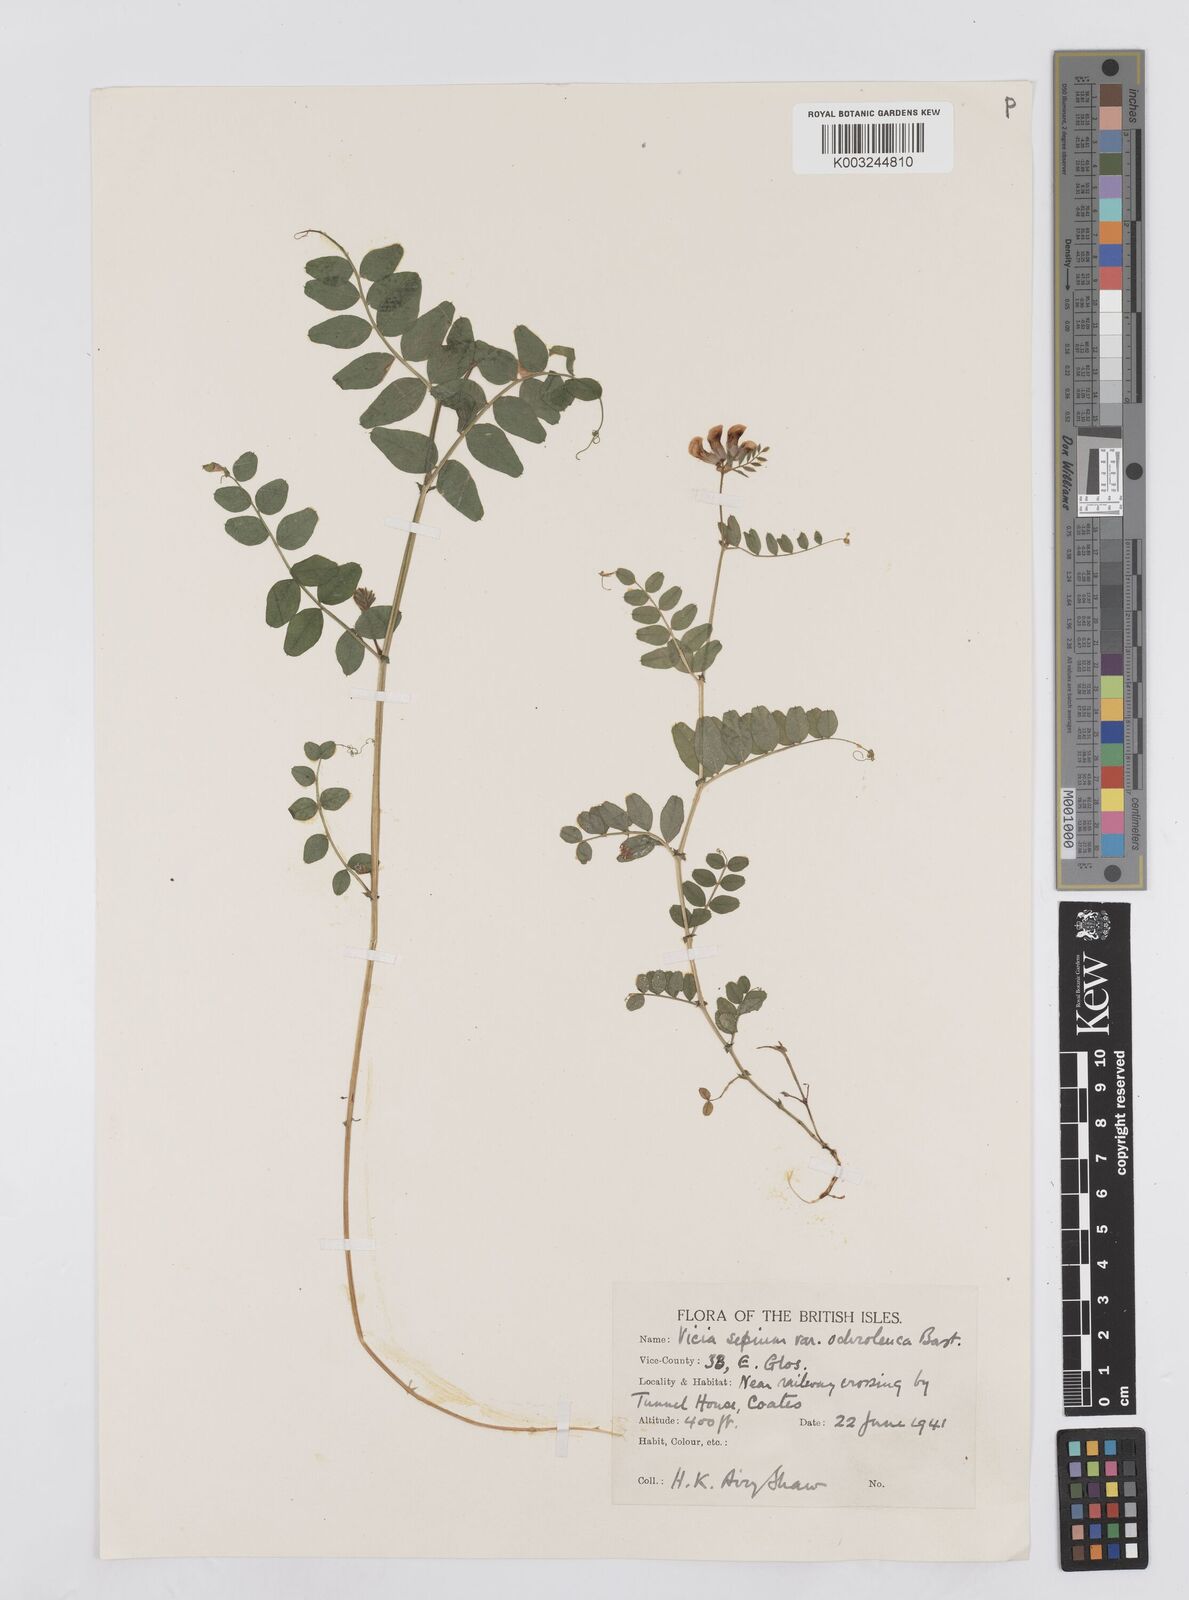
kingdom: Plantae
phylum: Tracheophyta
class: Magnoliopsida
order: Fabales
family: Fabaceae
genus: Vicia
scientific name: Vicia sepium
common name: Bush vetch
